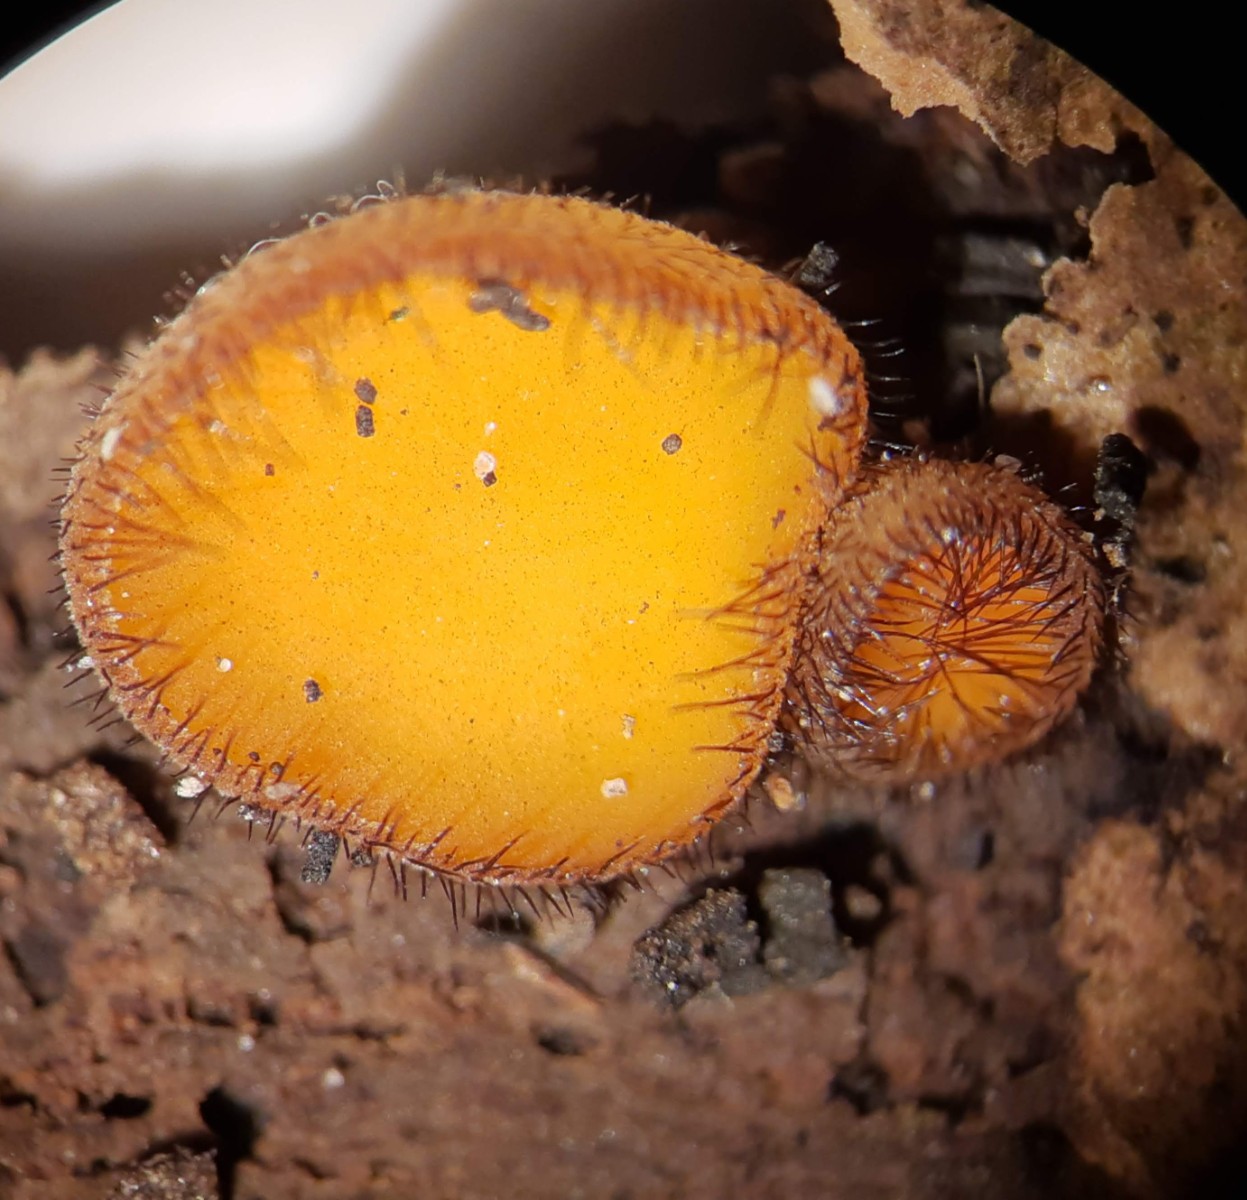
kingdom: Fungi
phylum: Ascomycota
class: Pezizomycetes
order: Pezizales
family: Pyronemataceae
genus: Scutellinia
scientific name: Scutellinia scutellata
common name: frynset skjoldbæger
